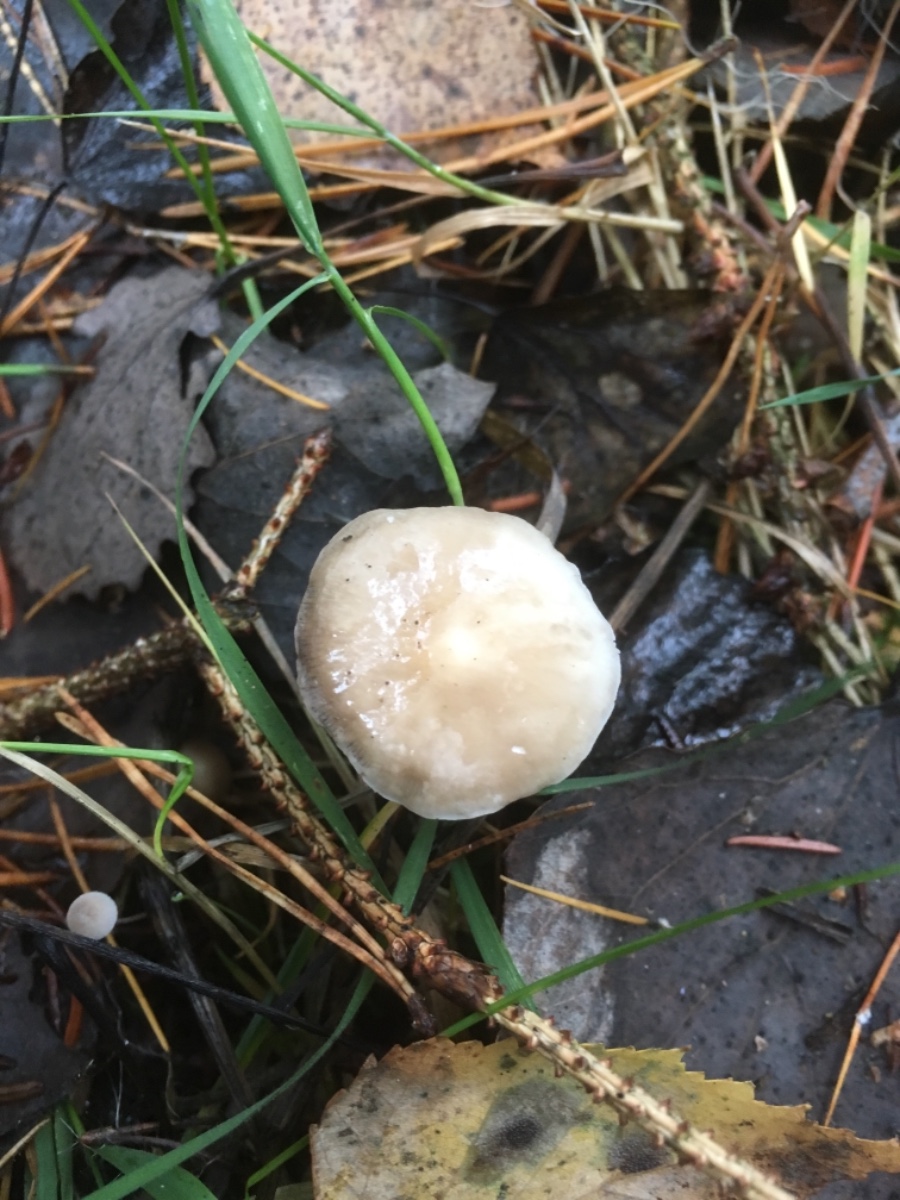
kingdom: Fungi
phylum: Basidiomycota
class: Agaricomycetes
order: Agaricales
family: Physalacriaceae
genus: Strobilurus
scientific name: Strobilurus
